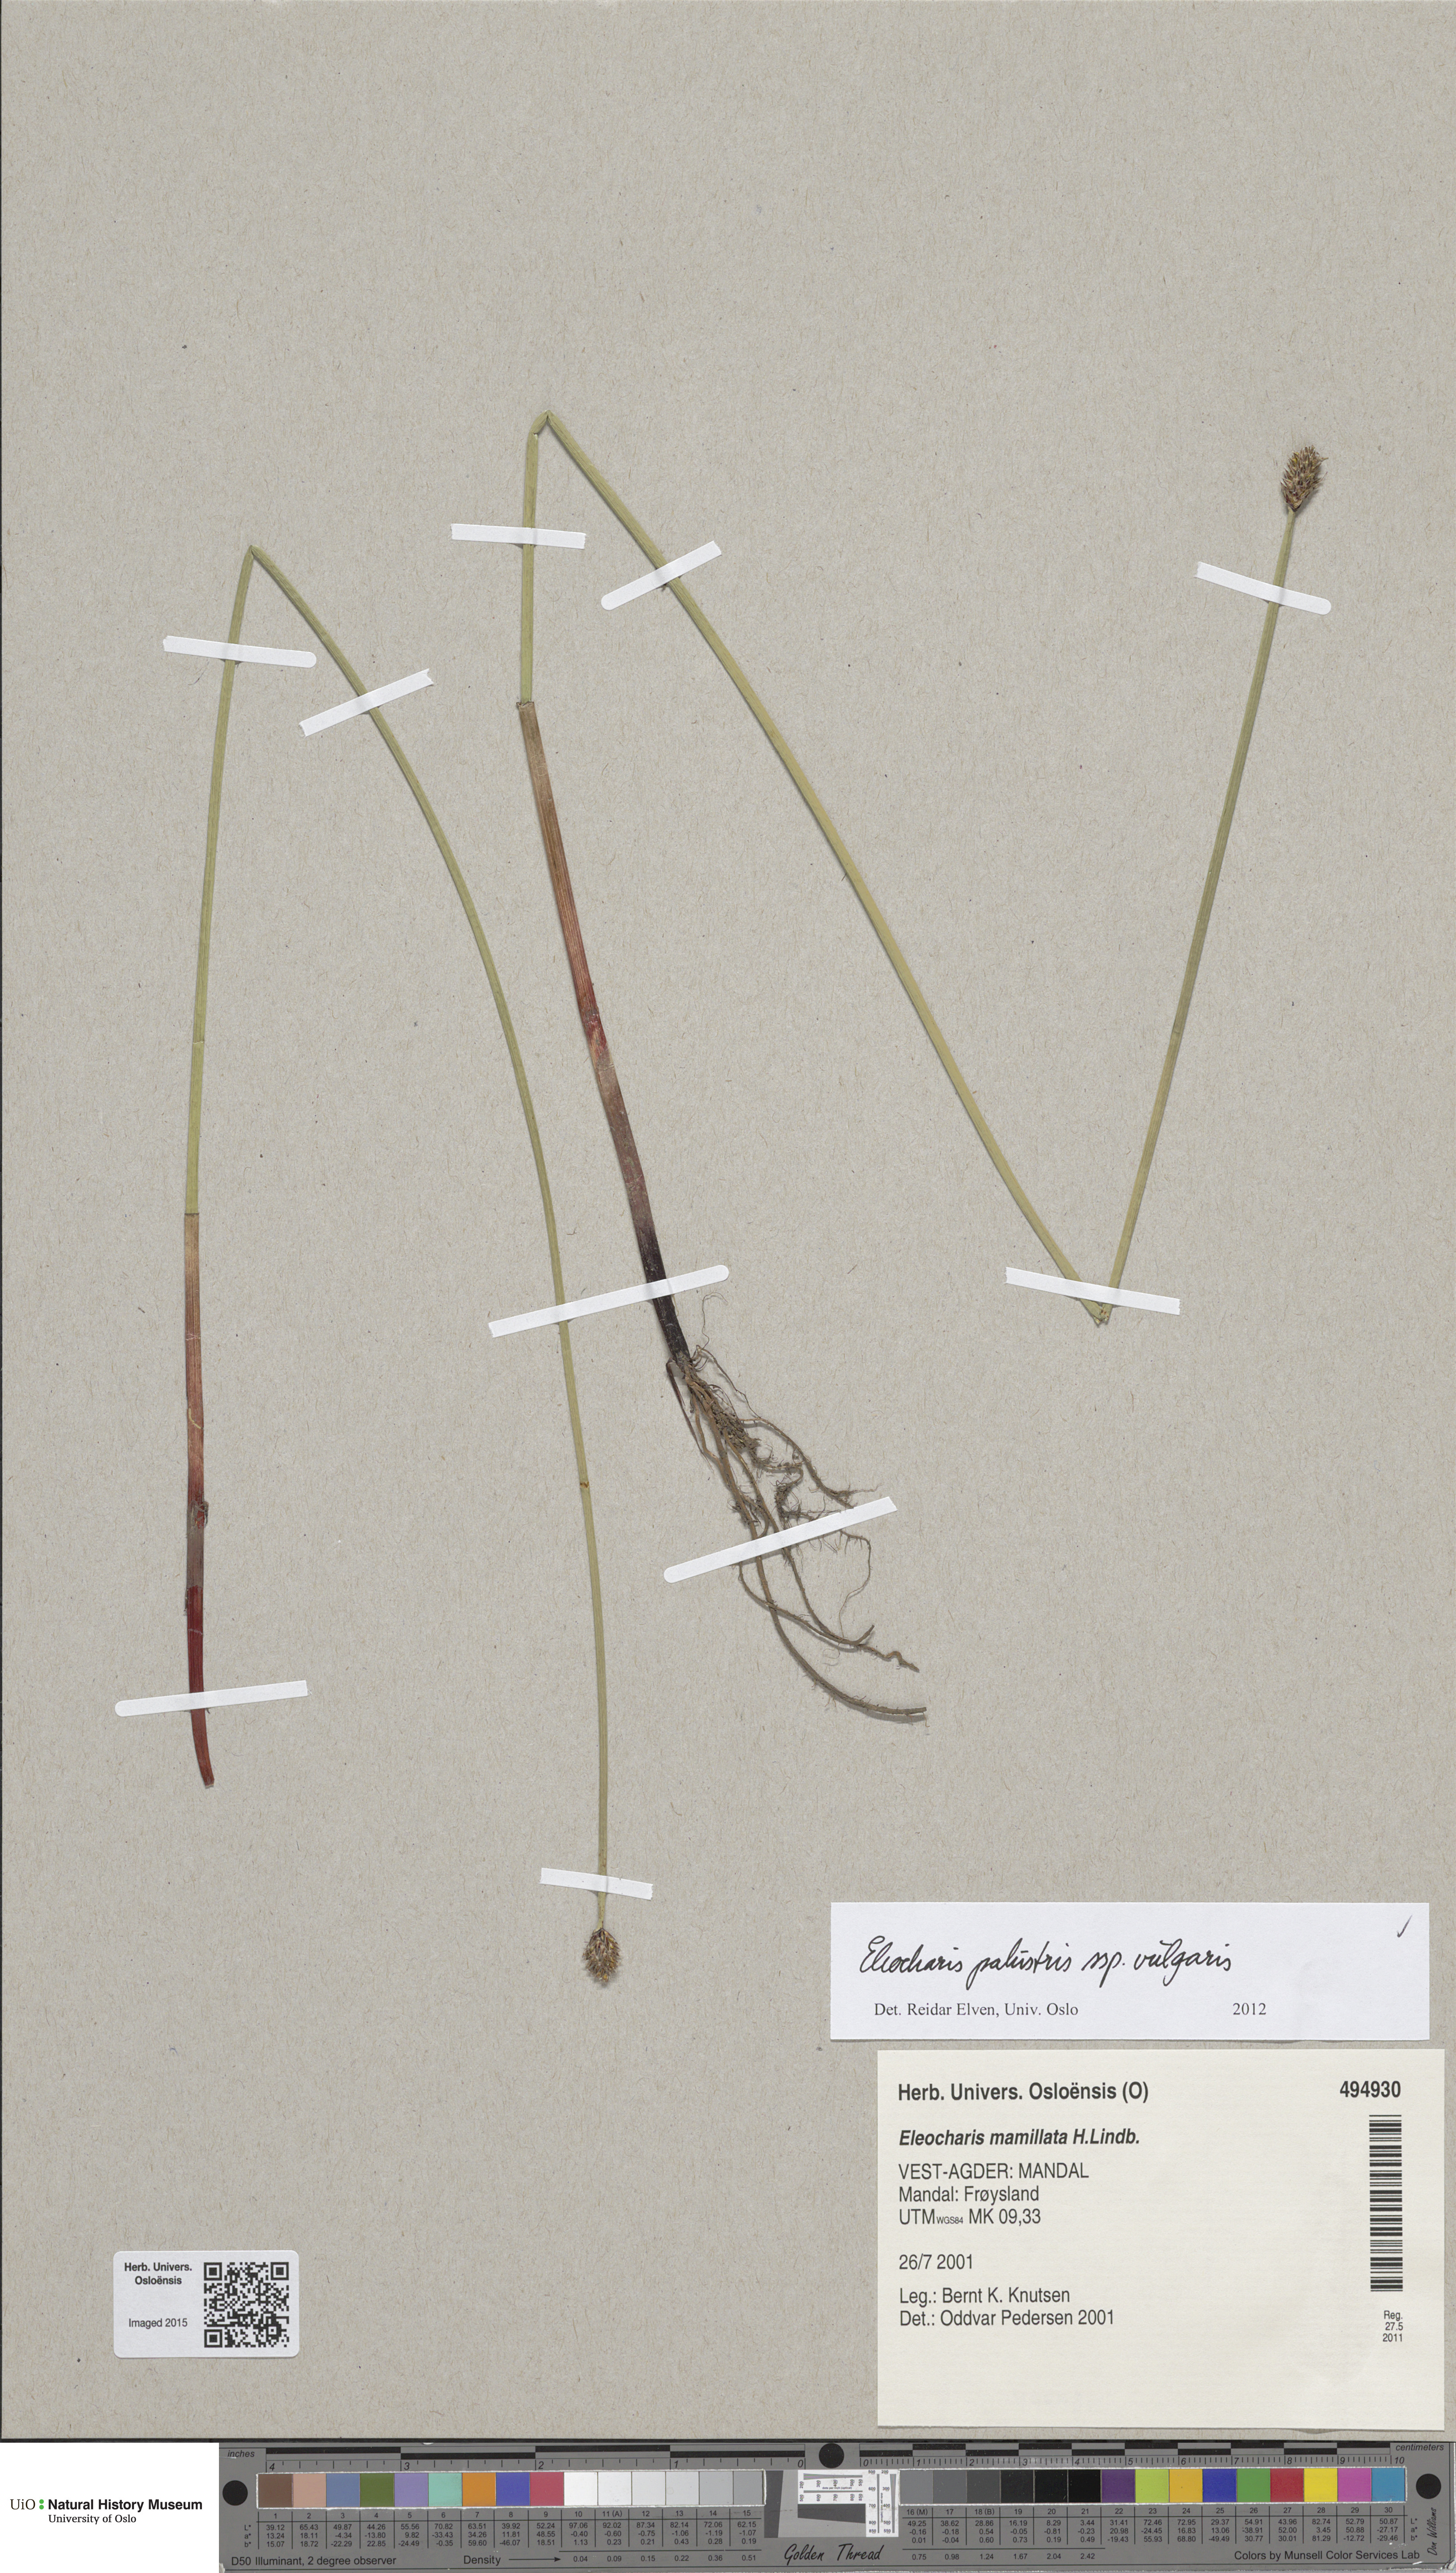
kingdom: Plantae
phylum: Tracheophyta
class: Liliopsida
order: Poales
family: Cyperaceae
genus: Eleocharis
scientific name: Eleocharis palustris
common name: Common spike-rush
